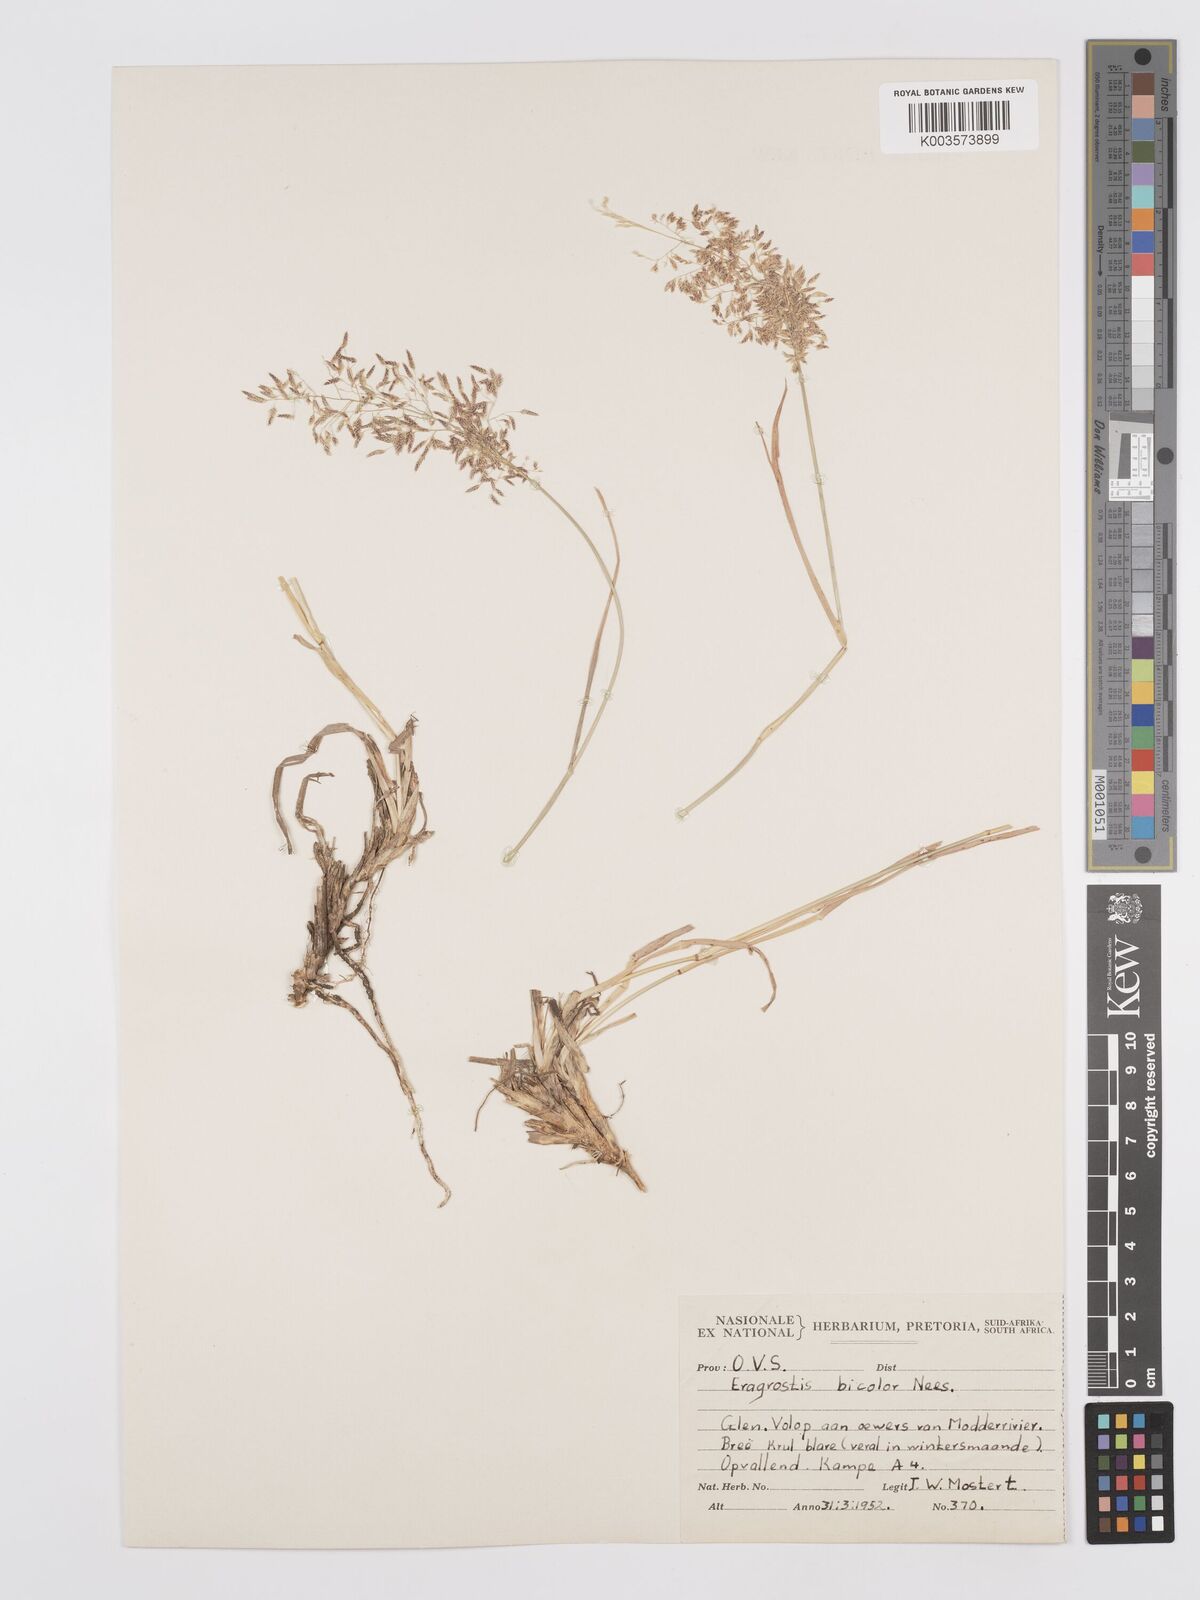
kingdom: Plantae
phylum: Tracheophyta
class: Liliopsida
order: Poales
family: Poaceae
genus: Eragrostis
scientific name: Eragrostis
